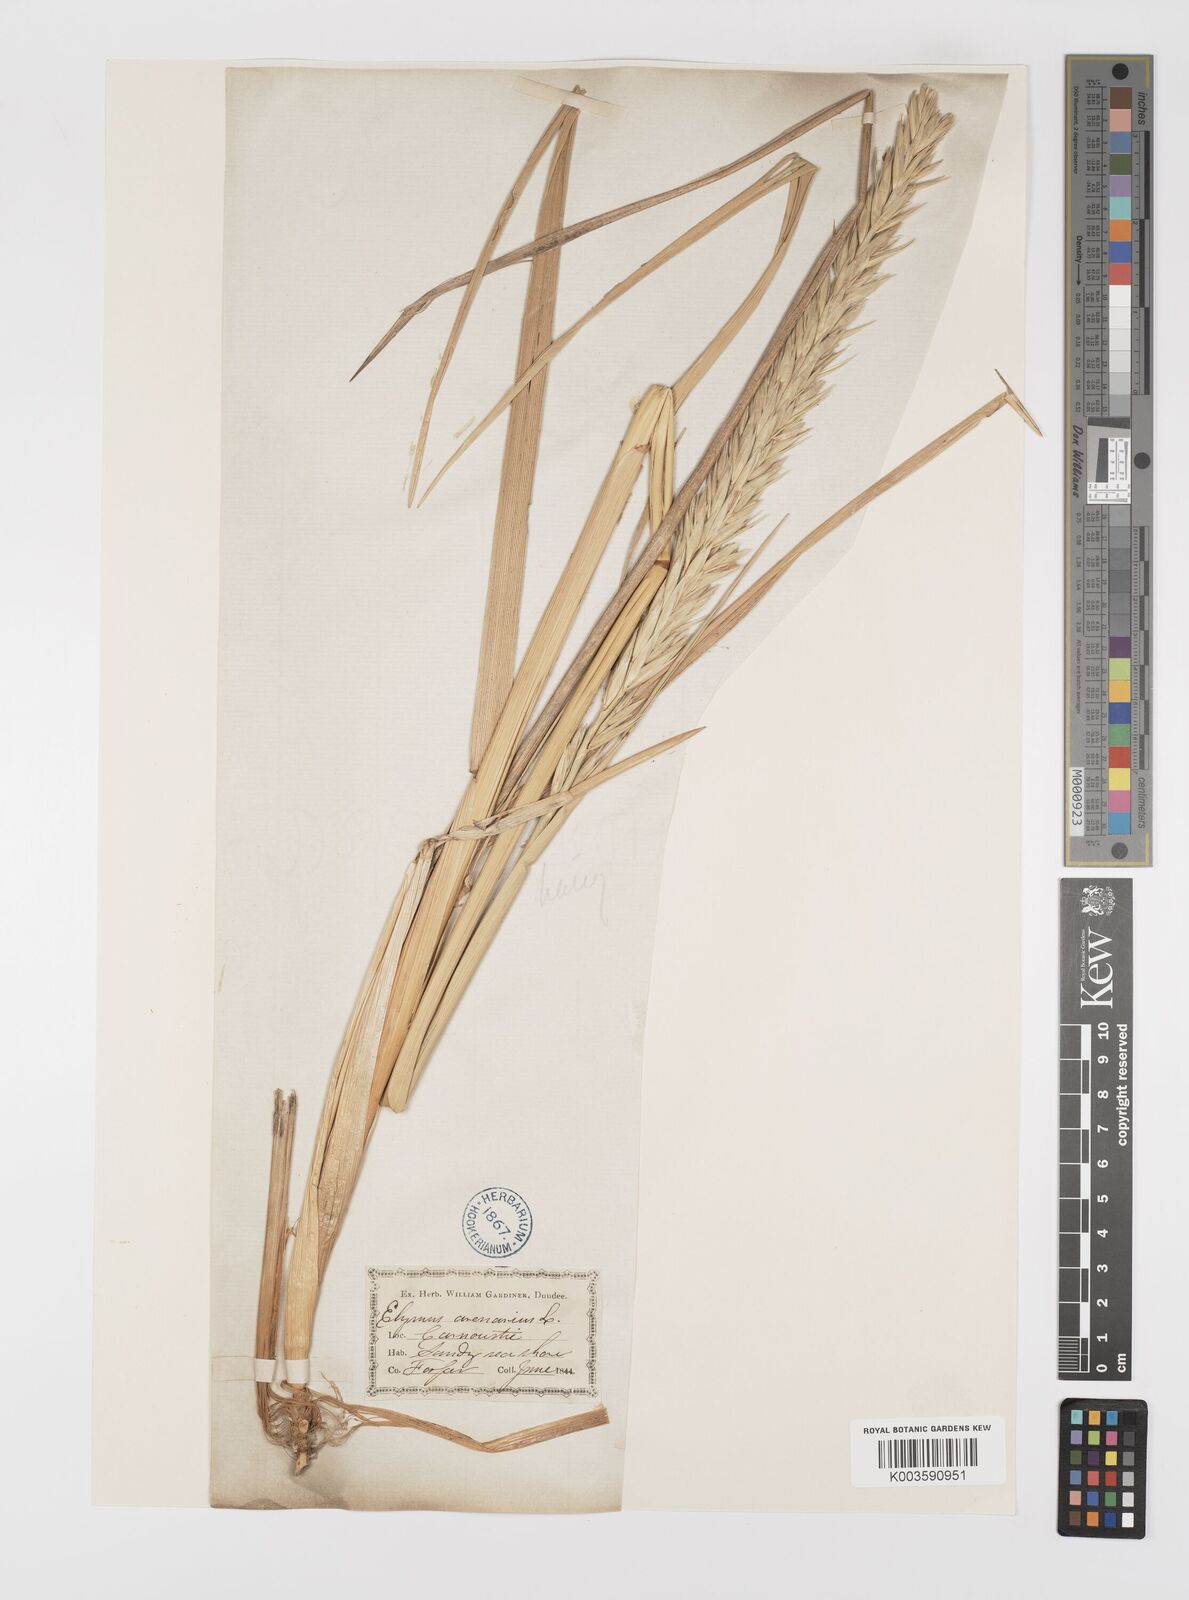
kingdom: Plantae
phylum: Tracheophyta
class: Liliopsida
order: Poales
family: Poaceae
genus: Leymus
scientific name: Leymus arenarius
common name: Lyme-grass
